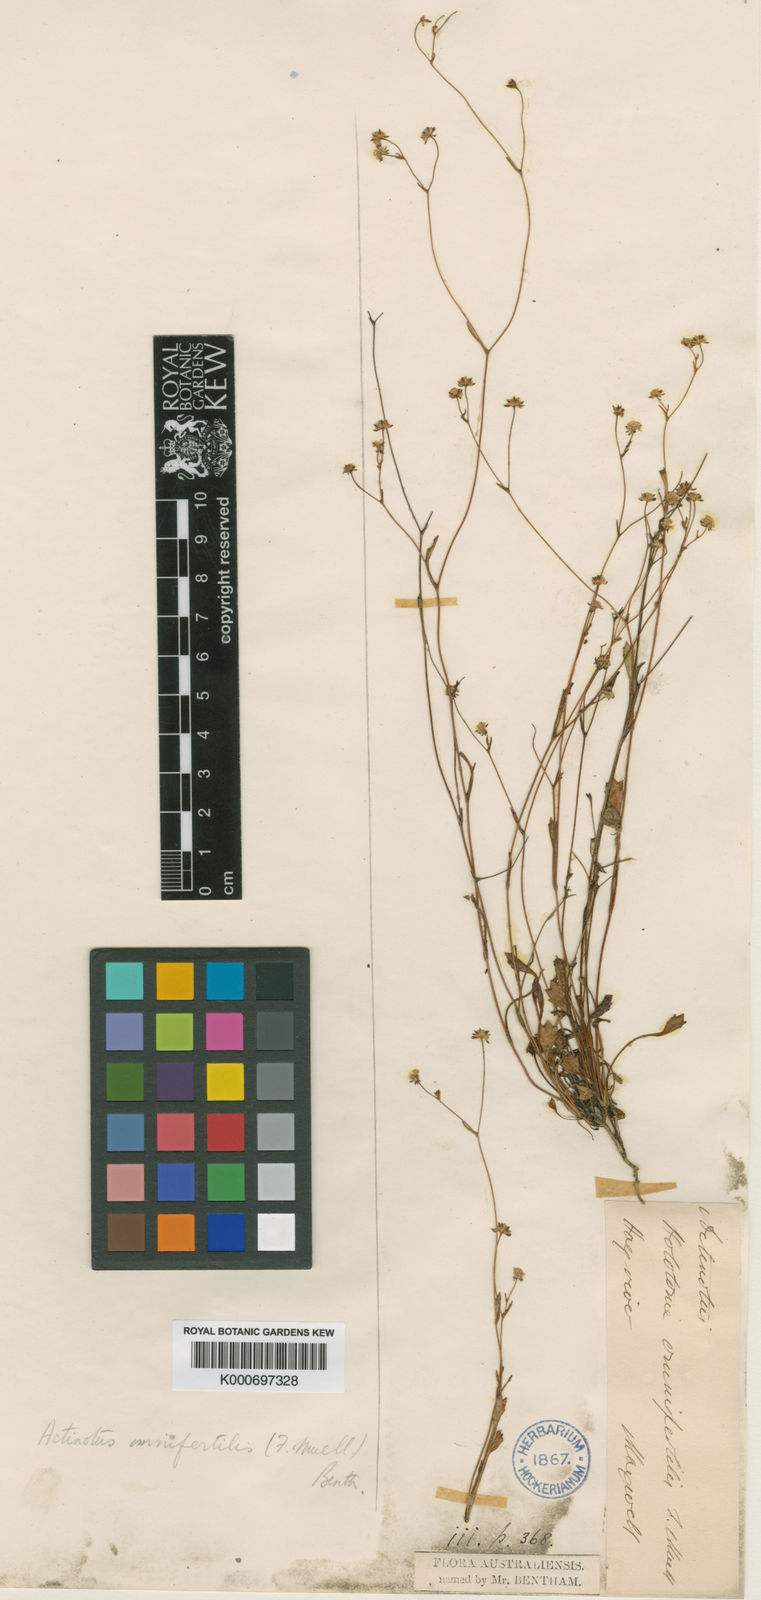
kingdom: Plantae
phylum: Tracheophyta
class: Magnoliopsida
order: Apiales
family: Apiaceae
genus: Actinotus
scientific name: Actinotus omnifertilis
